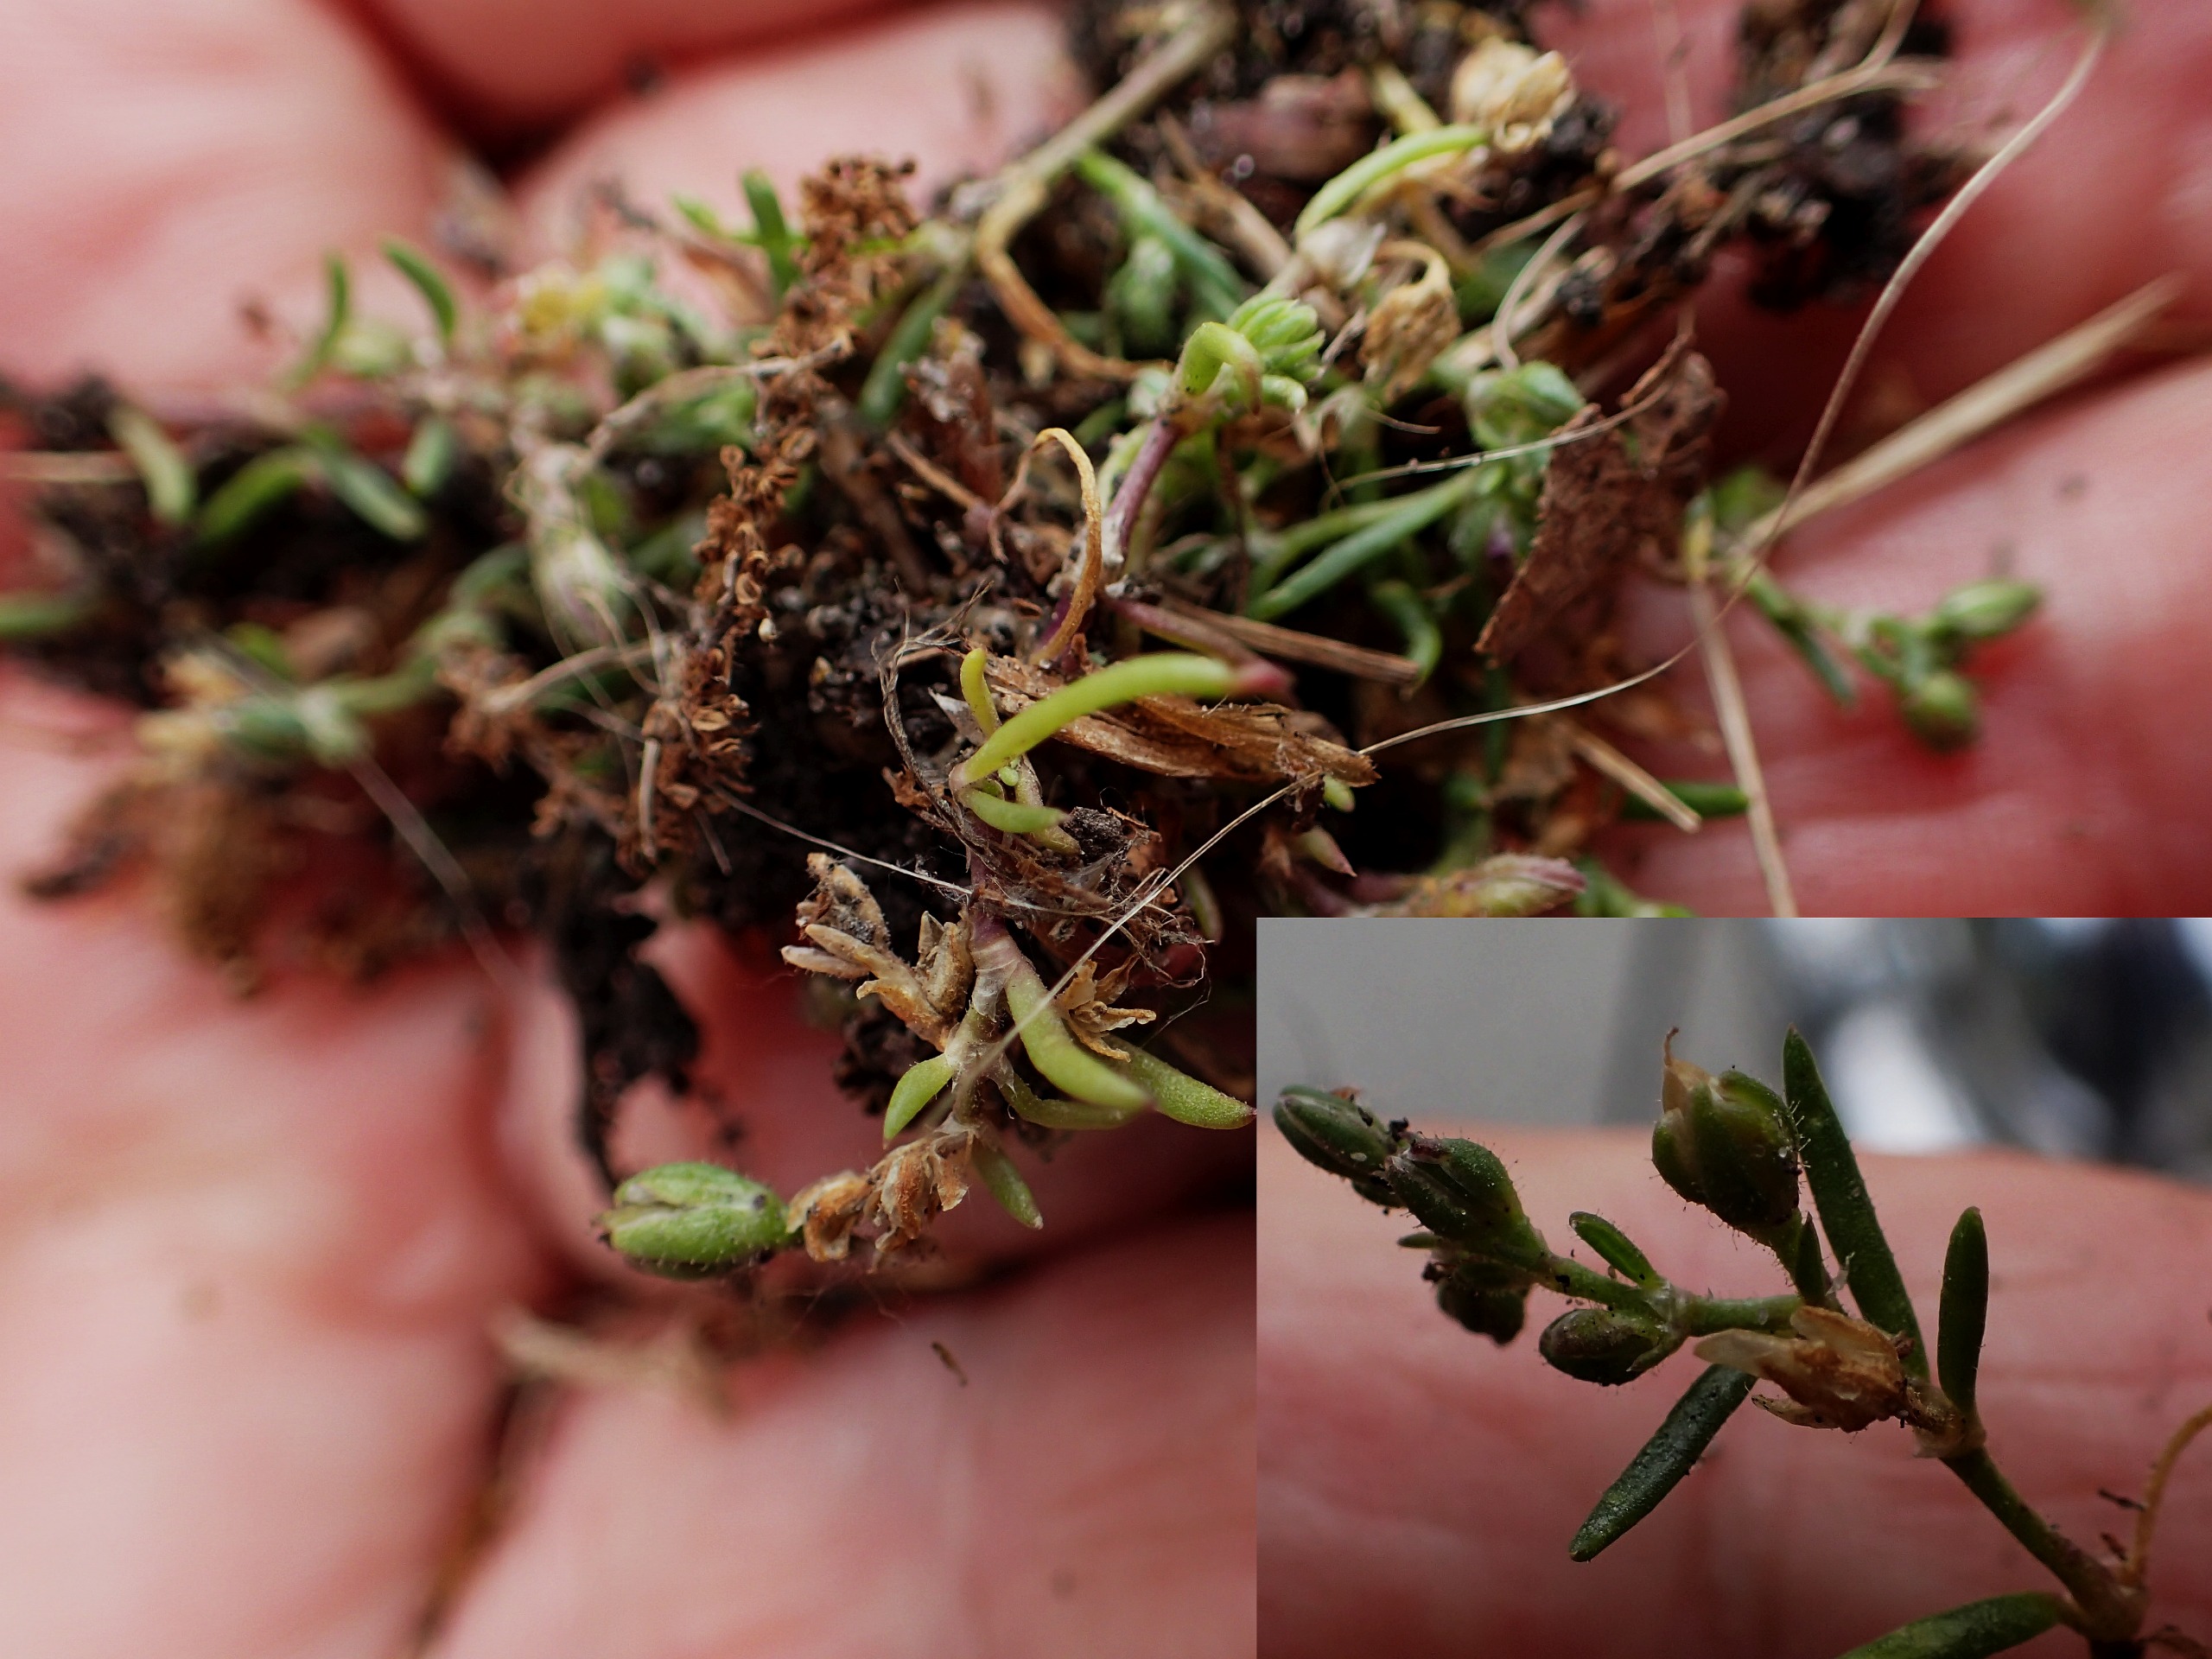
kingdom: Plantae
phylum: Tracheophyta
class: Magnoliopsida
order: Caryophyllales
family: Caryophyllaceae
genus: Spergularia
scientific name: Spergularia marina
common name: Kødet hindeknæ
